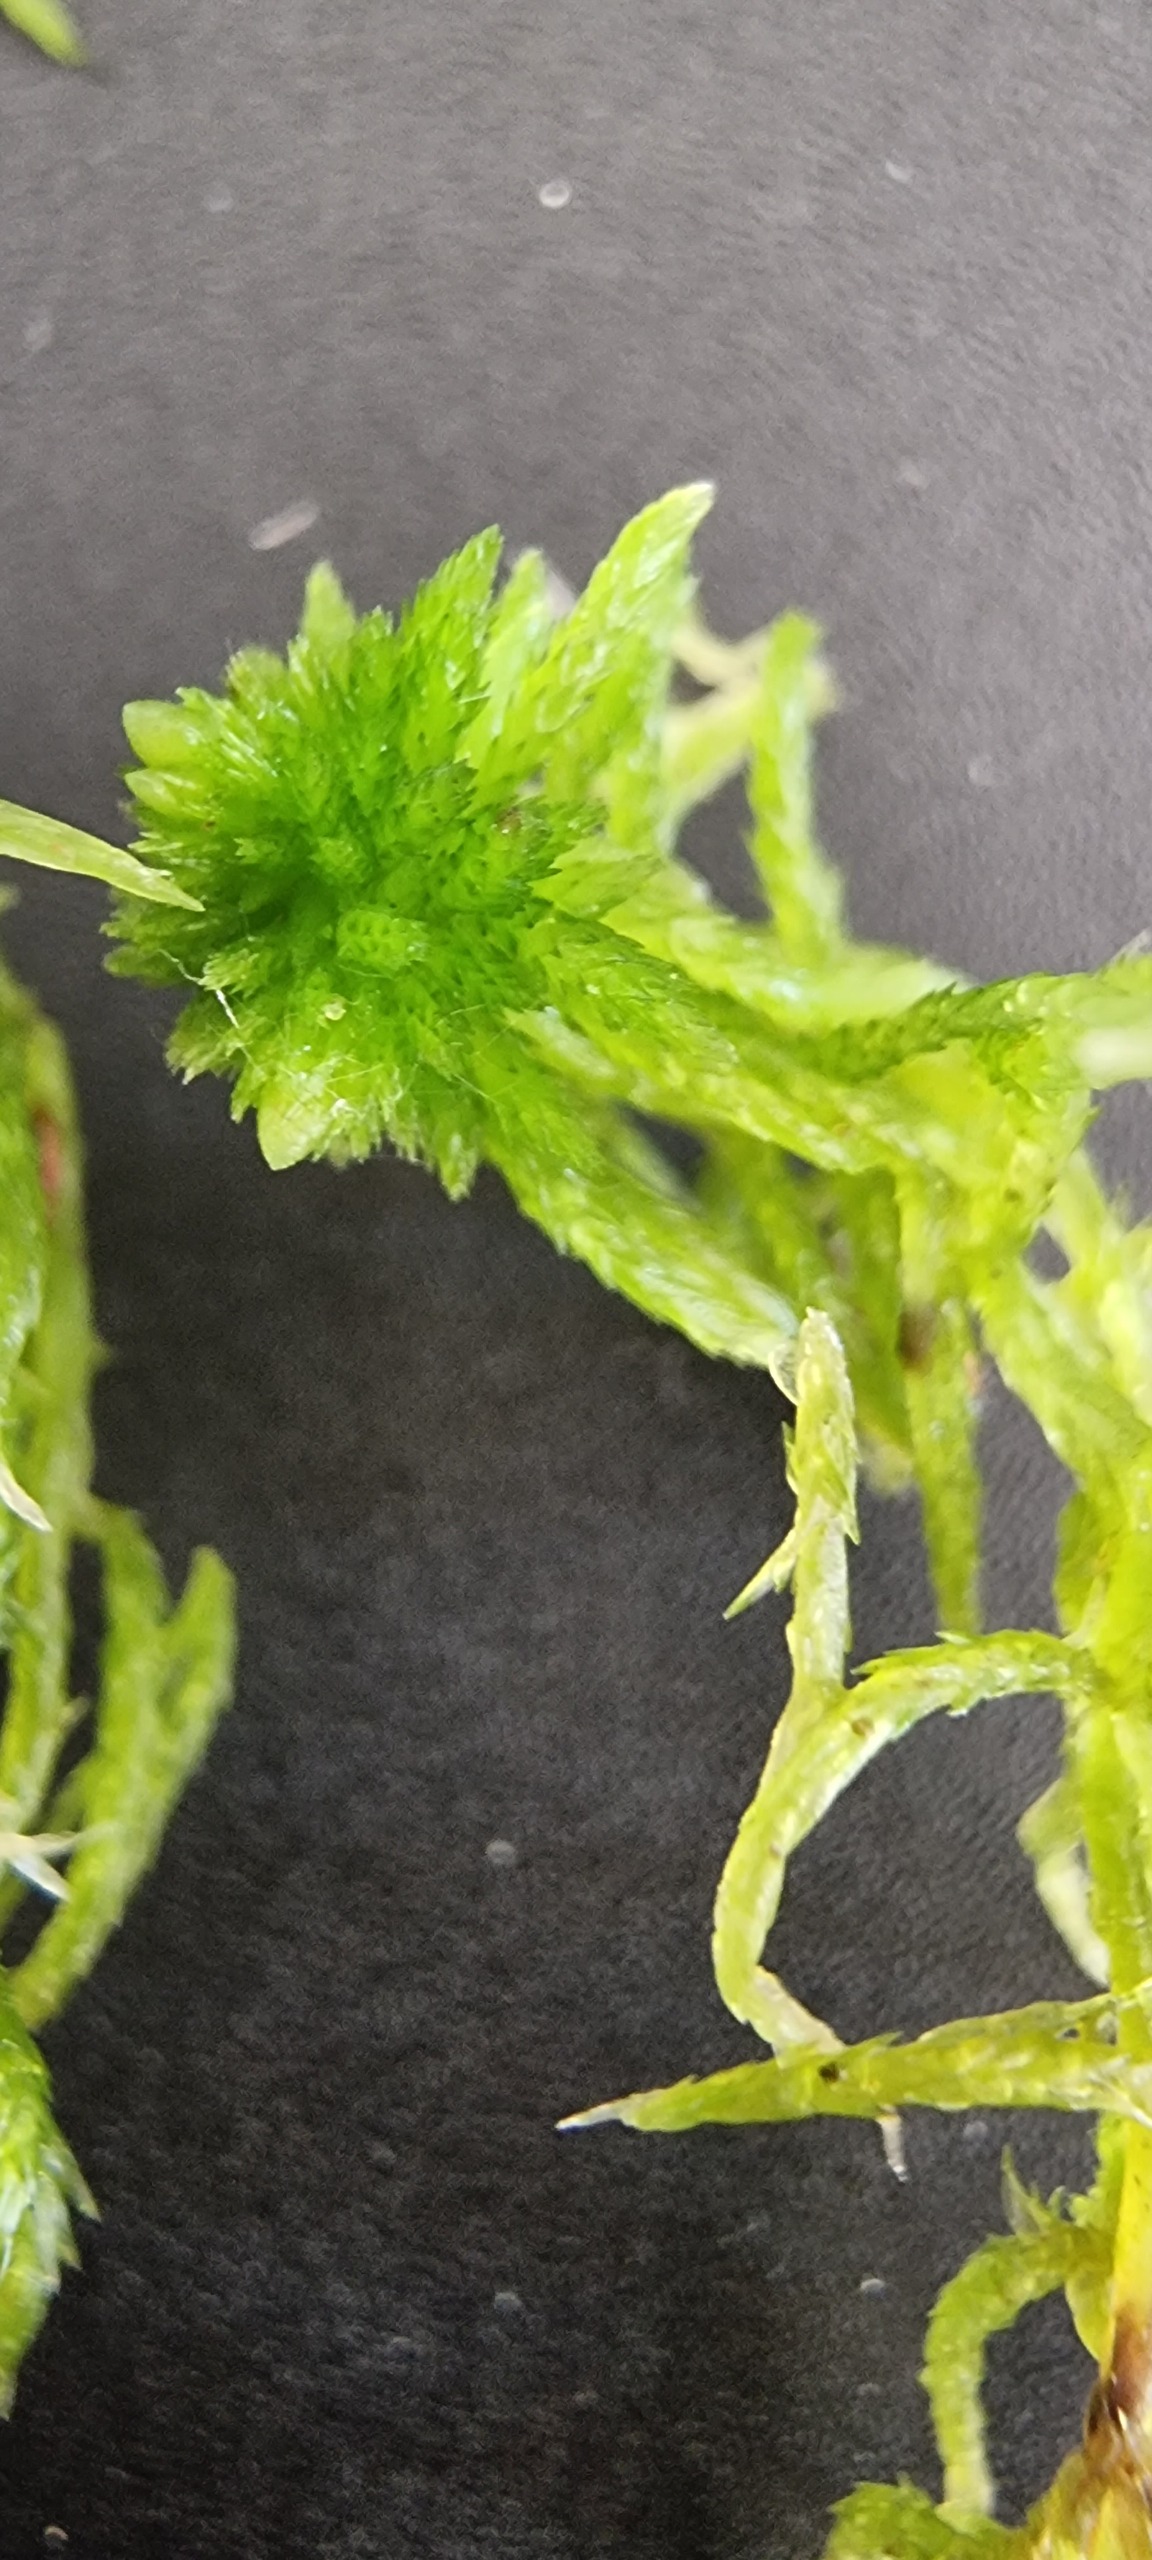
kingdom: Plantae
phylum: Bryophyta
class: Sphagnopsida
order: Sphagnales
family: Sphagnaceae
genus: Sphagnum
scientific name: Sphagnum fimbriatum
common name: Frynset tørvemos
